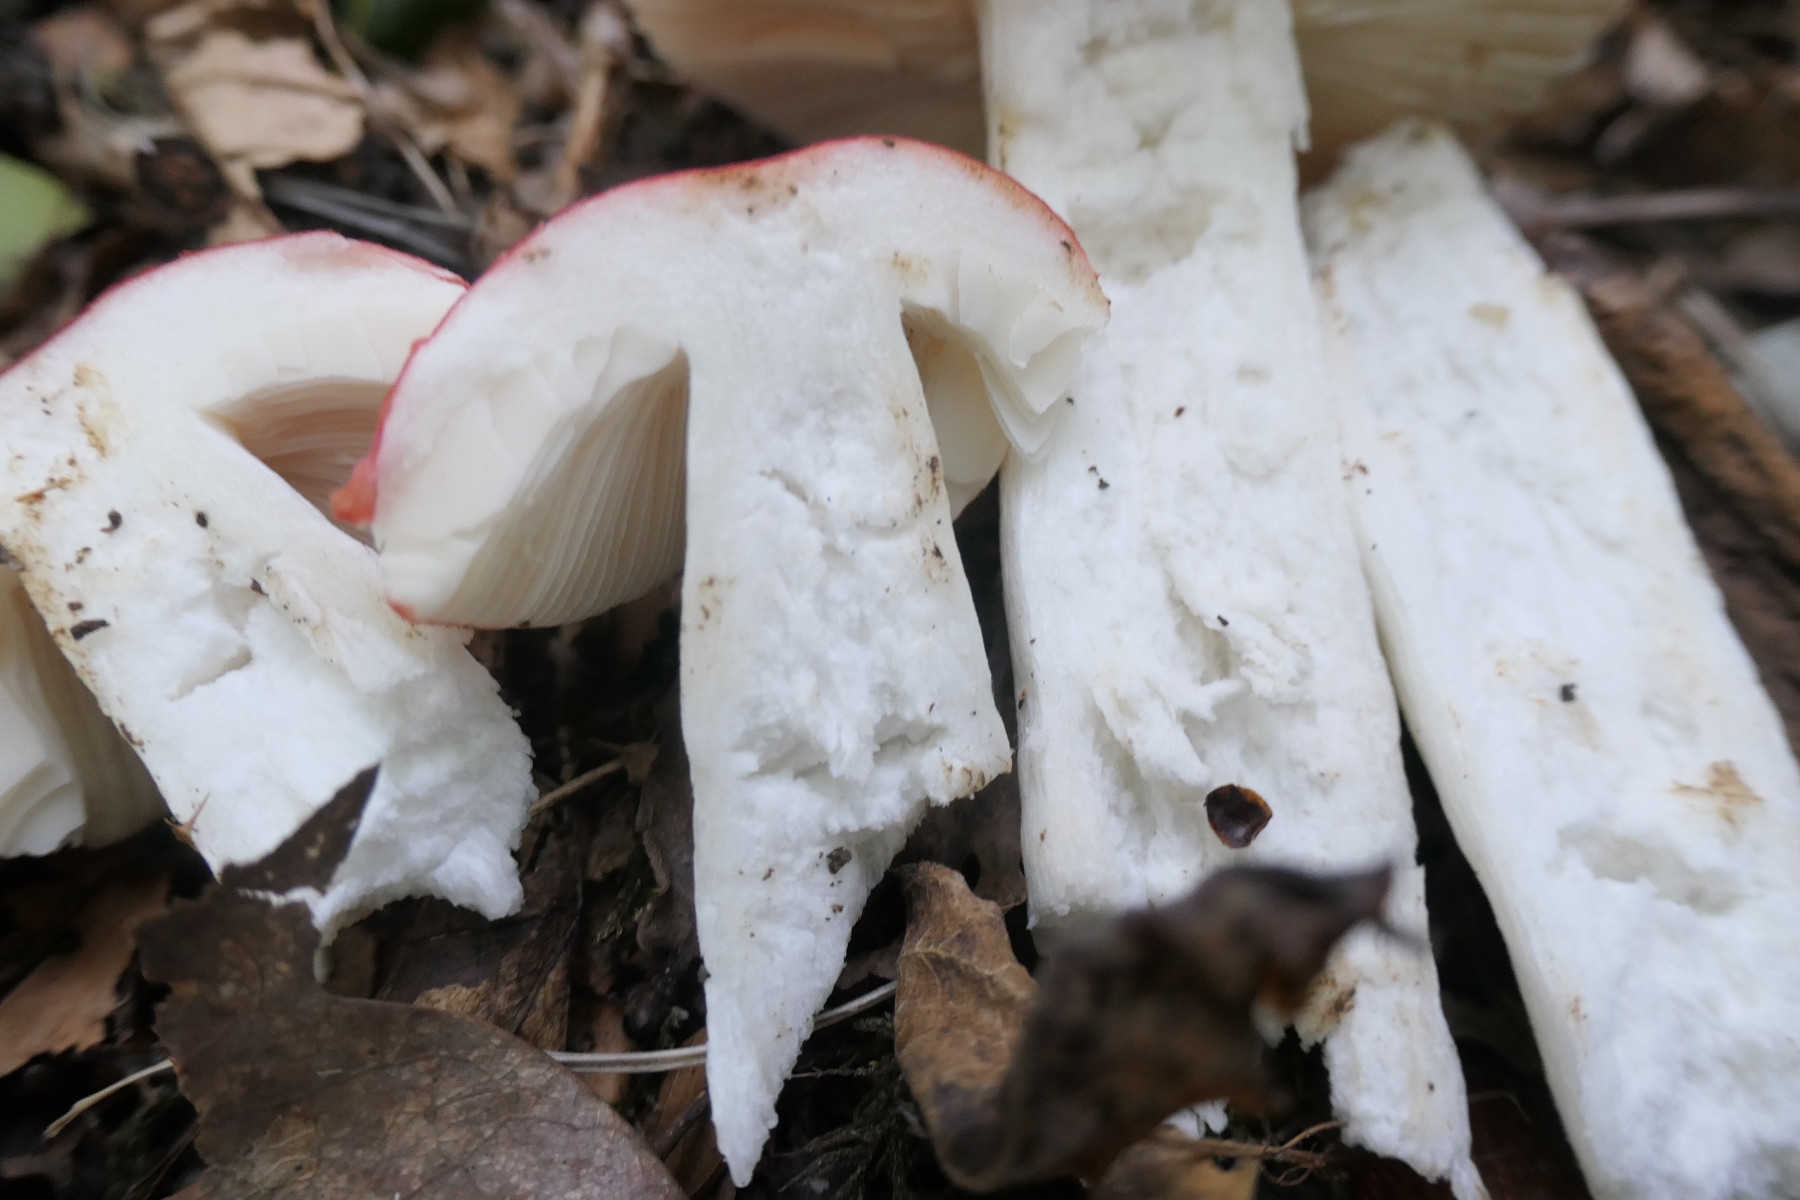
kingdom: Fungi
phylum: Basidiomycota
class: Agaricomycetes
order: Russulales
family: Russulaceae
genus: Russula
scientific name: Russula pseudointegra
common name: cinnoberrød skørhat
